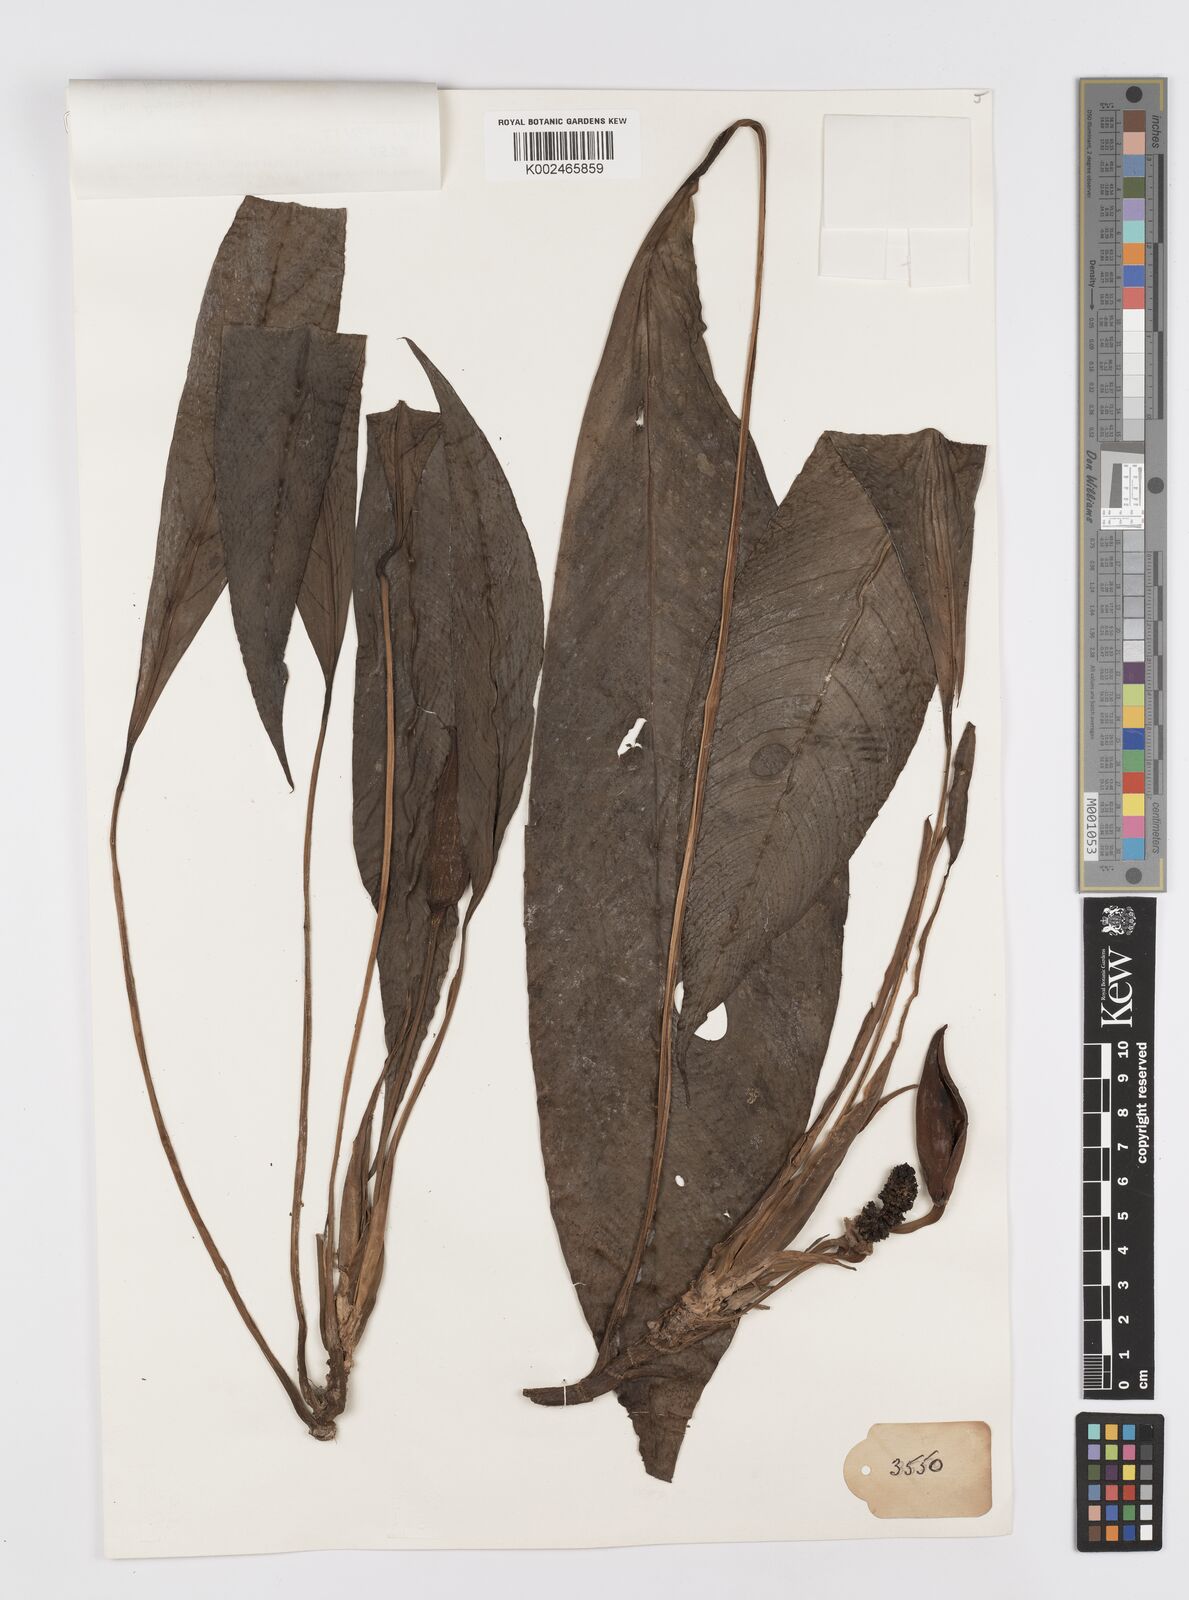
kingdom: Plantae
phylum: Tracheophyta
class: Liliopsida
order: Alismatales
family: Araceae
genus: Rhaphidophora
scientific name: Rhaphidophora megasperma
